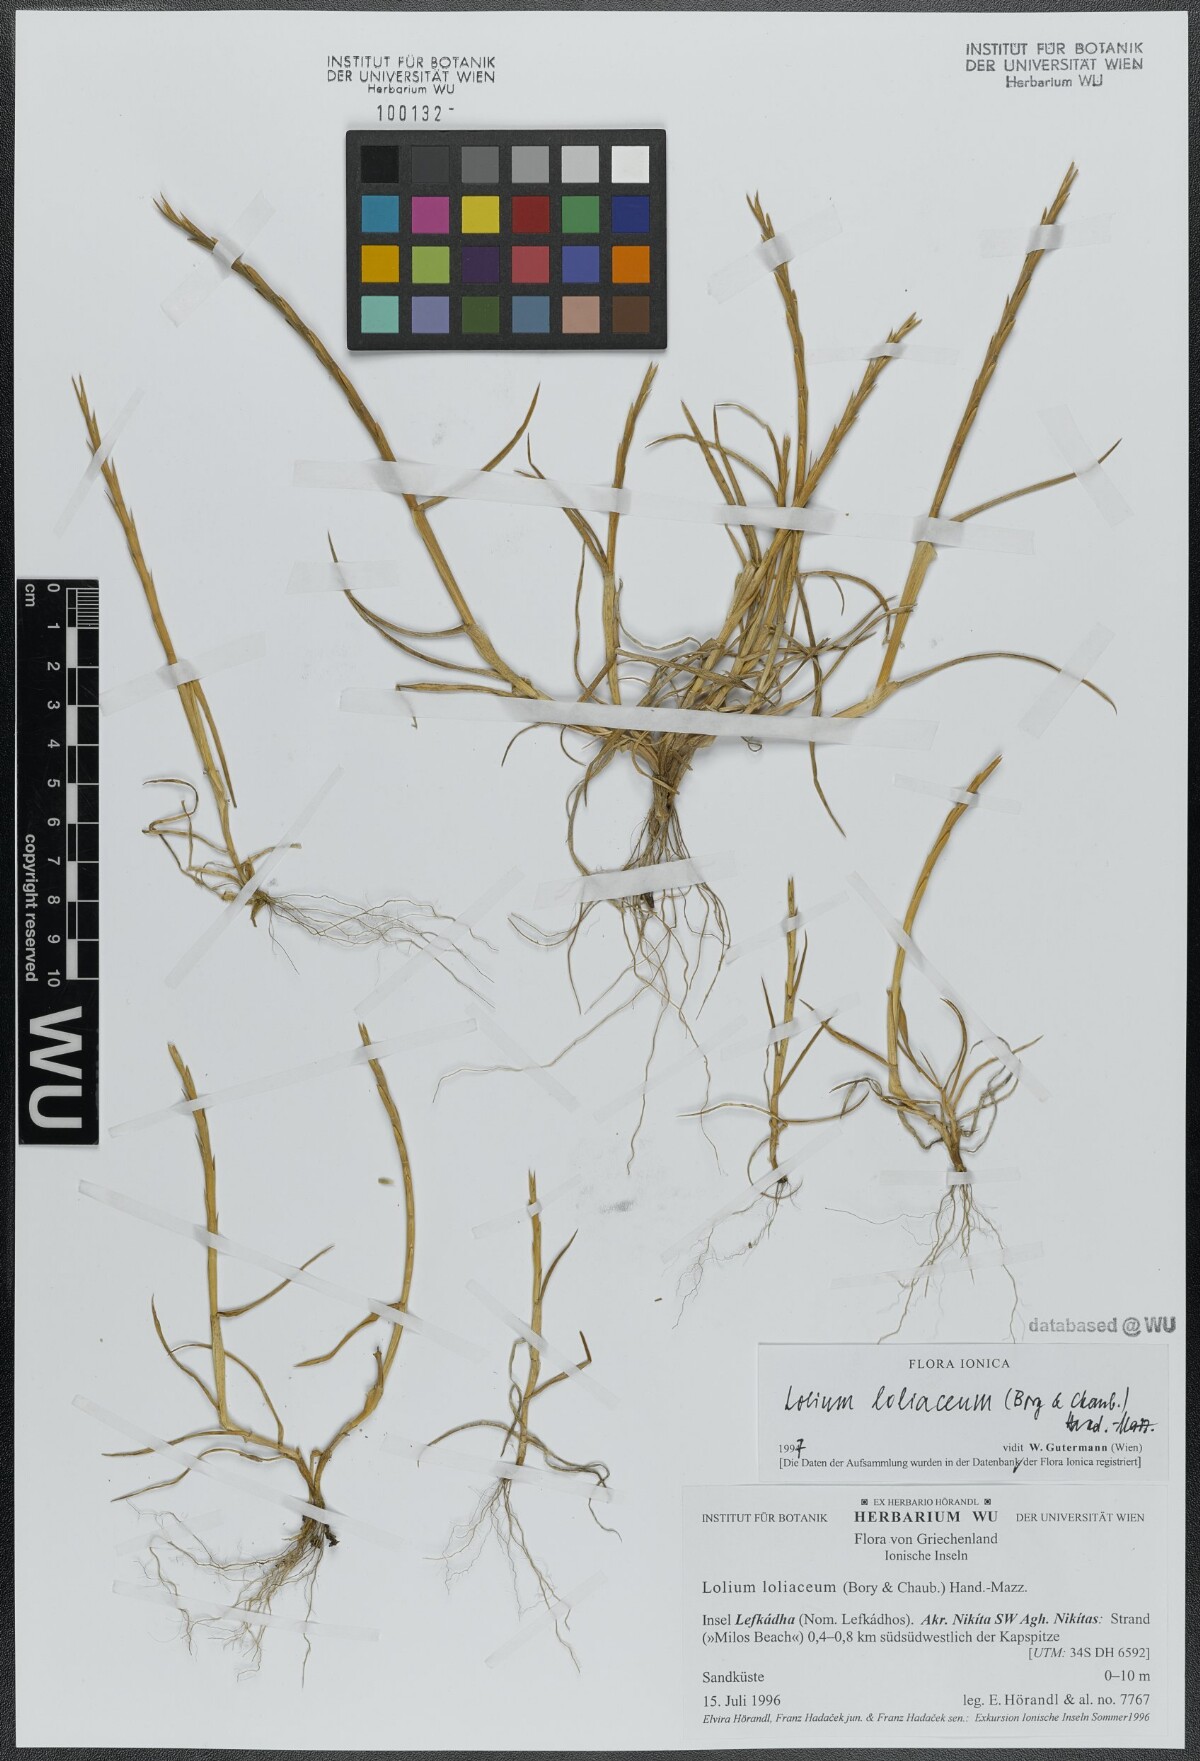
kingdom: Plantae
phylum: Tracheophyta
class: Liliopsida
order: Poales
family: Poaceae
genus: Lolium
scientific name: Lolium rigidum
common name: Wimmera ryegrass
